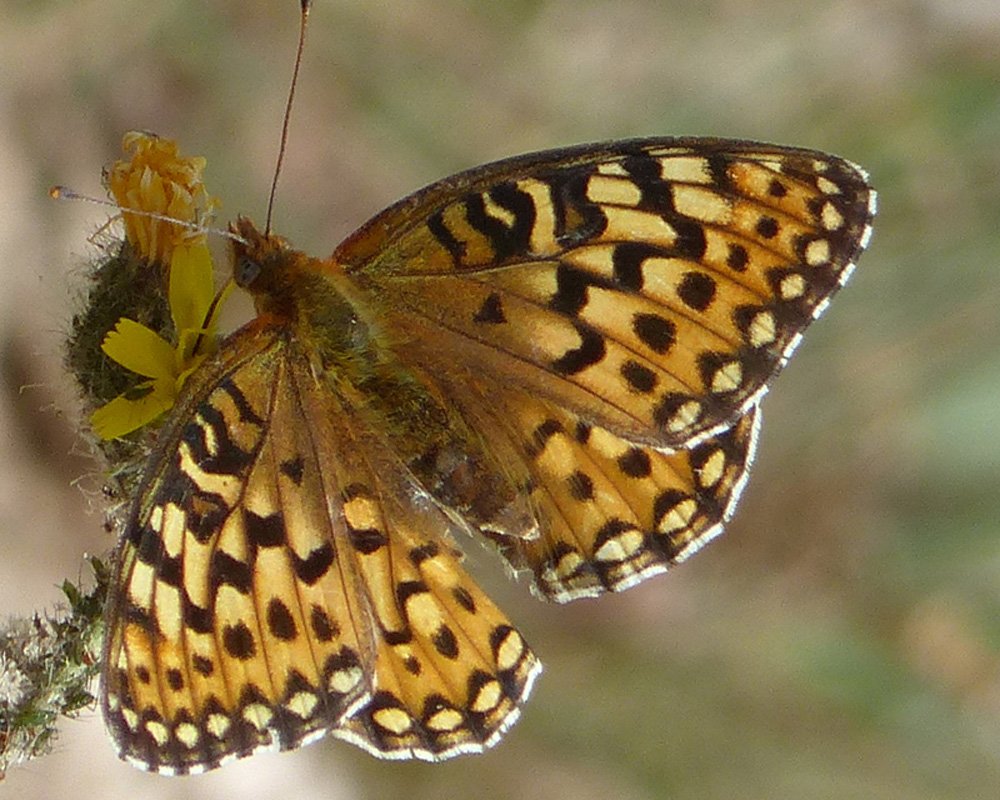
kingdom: Animalia
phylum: Arthropoda
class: Insecta
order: Lepidoptera
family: Nymphalidae
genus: Speyeria
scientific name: Speyeria egleis
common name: Great Basin Fritillary
